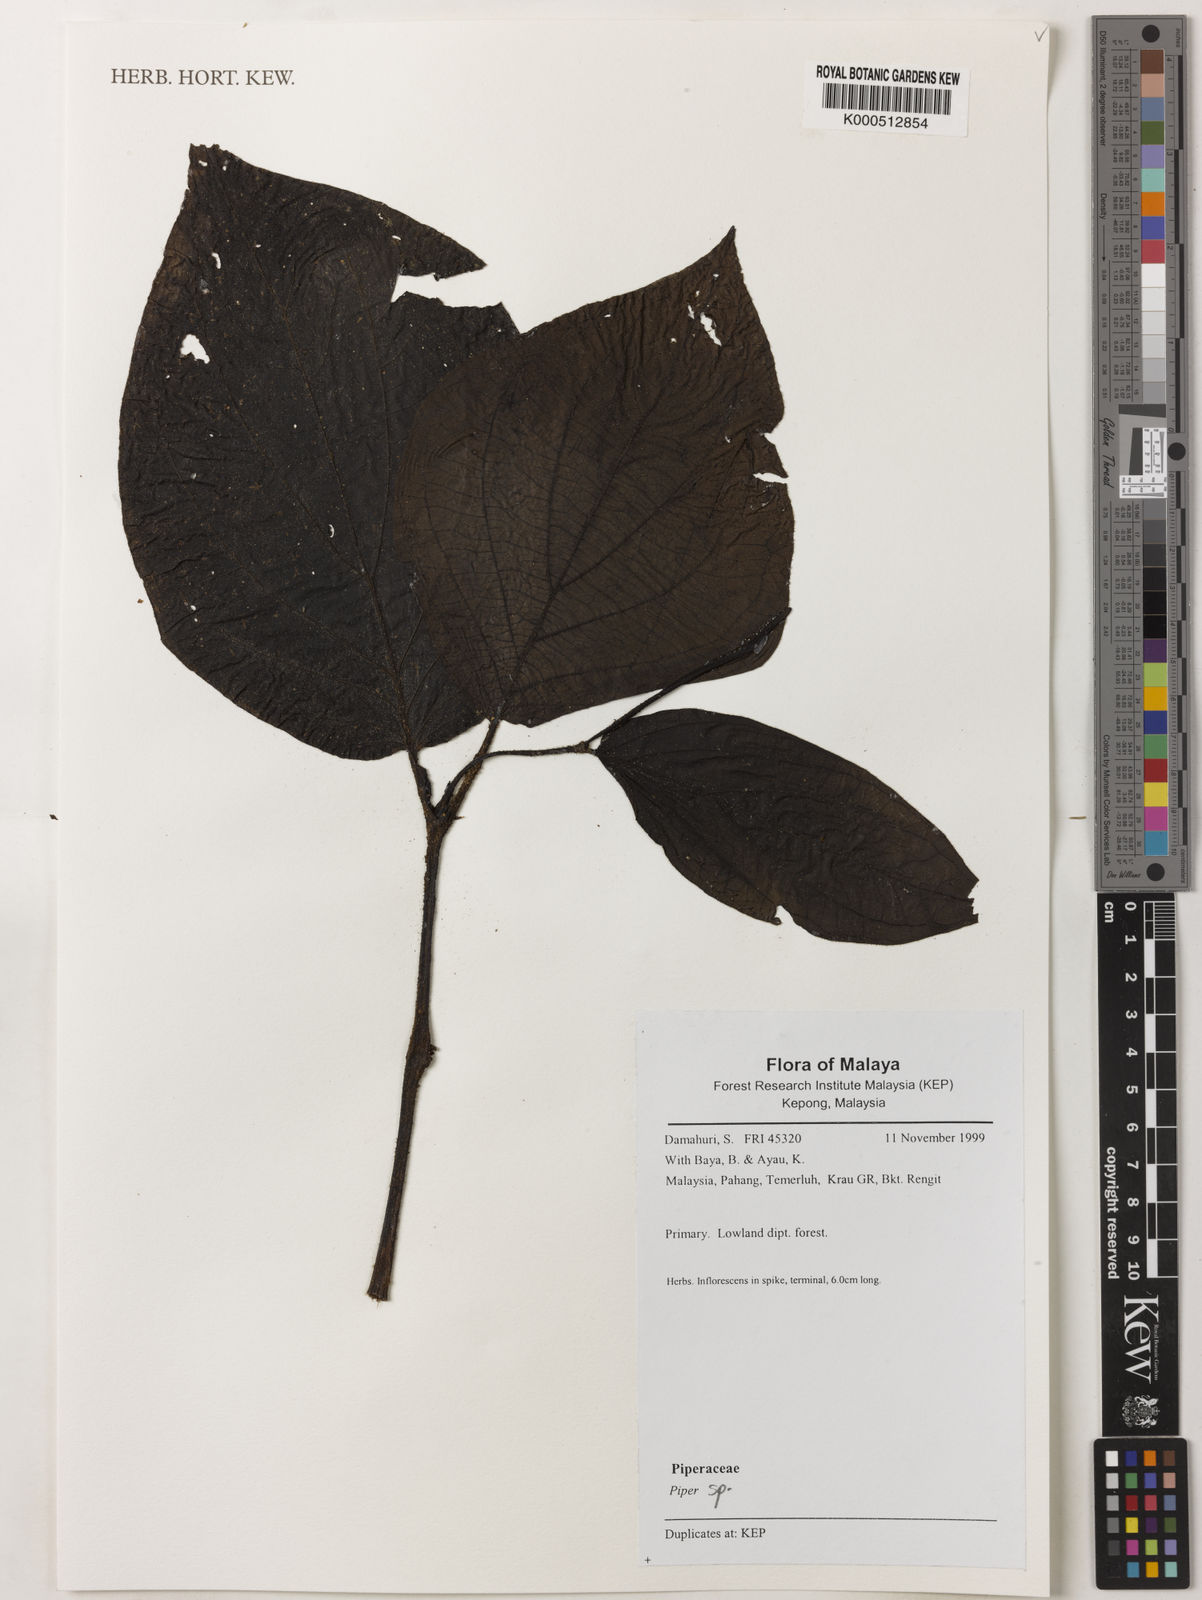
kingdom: Plantae
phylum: Tracheophyta
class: Magnoliopsida
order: Piperales
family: Piperaceae
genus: Piper
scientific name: Piper
